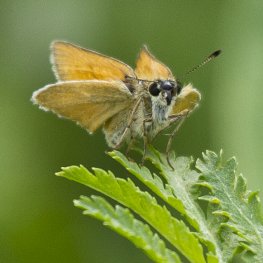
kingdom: Animalia
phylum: Arthropoda
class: Insecta
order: Lepidoptera
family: Hesperiidae
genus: Thymelicus
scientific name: Thymelicus lineola
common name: European Skipper
